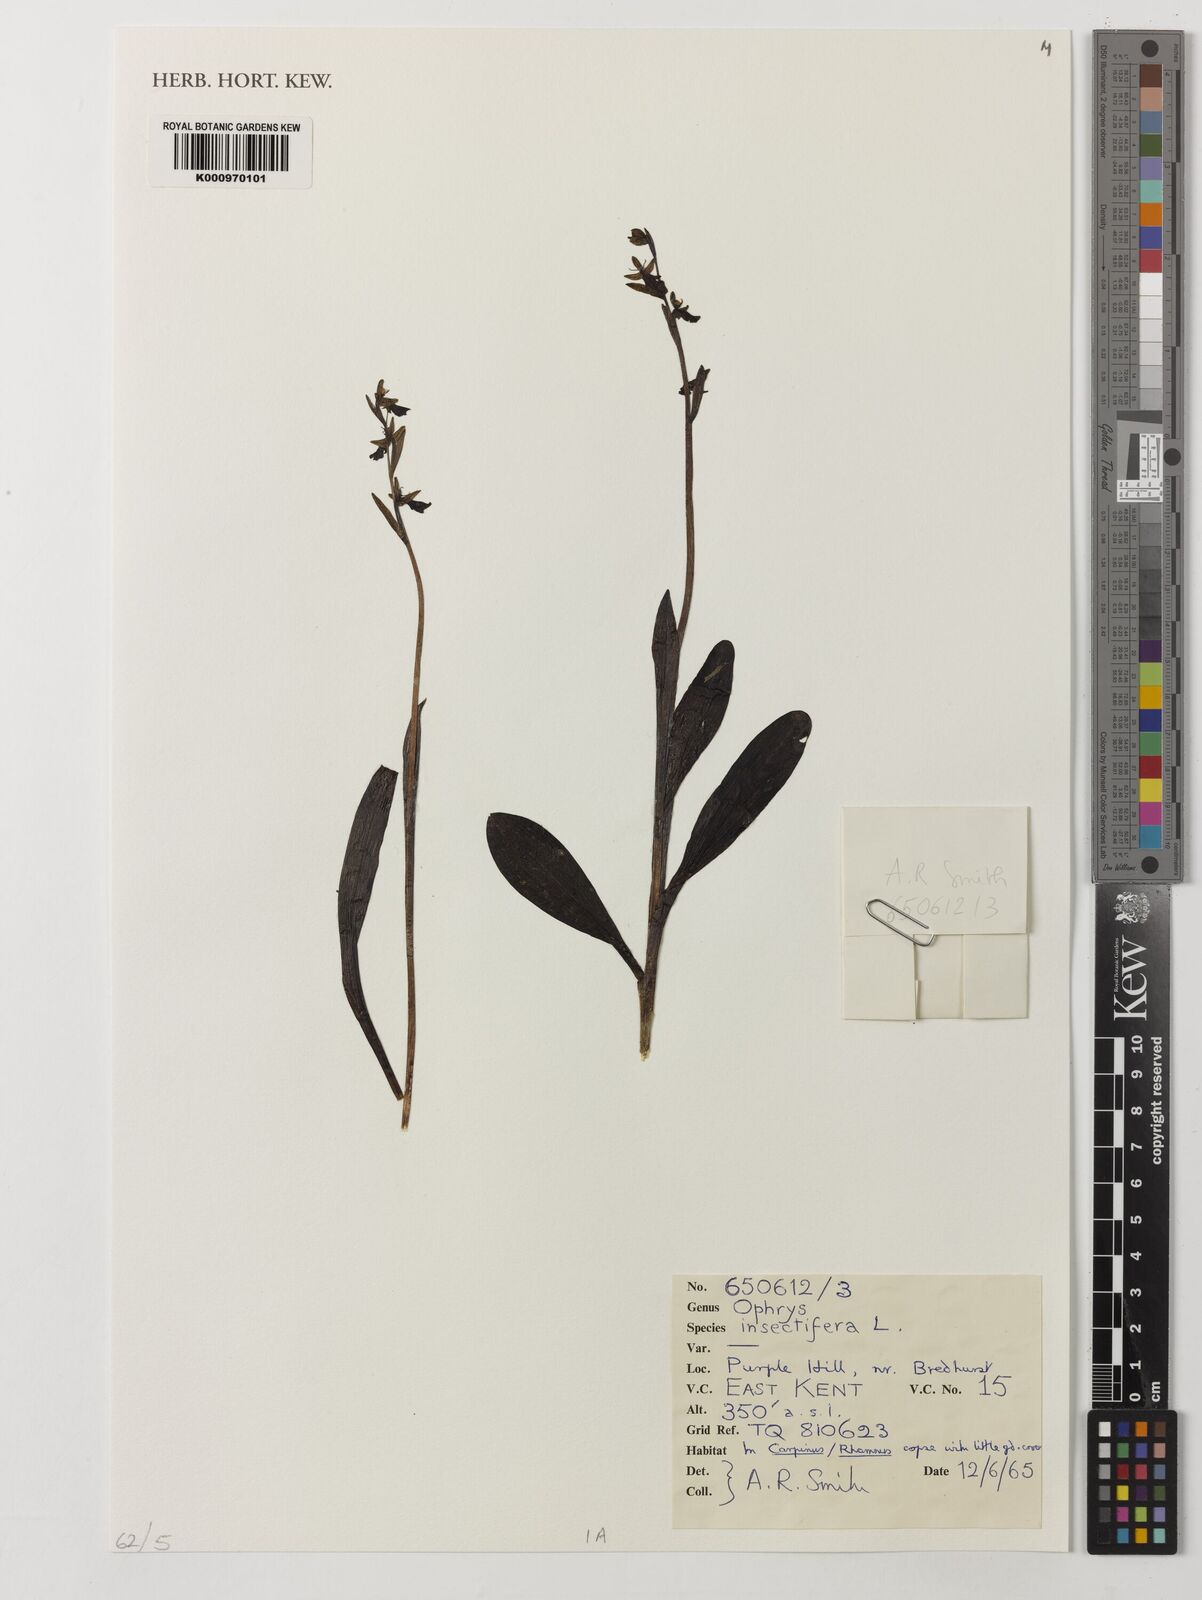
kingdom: Plantae
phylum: Tracheophyta
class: Liliopsida
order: Asparagales
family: Orchidaceae
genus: Ophrys
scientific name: Ophrys insectifera
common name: Fly orchid
